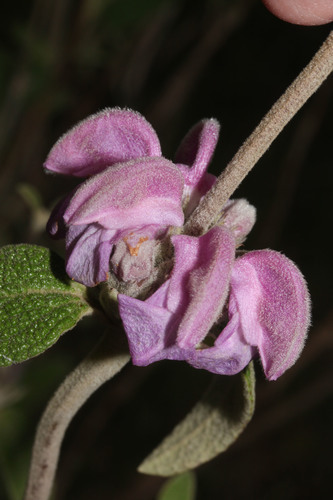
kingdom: Plantae
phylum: Tracheophyta
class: Magnoliopsida
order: Lamiales
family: Lamiaceae
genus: Phlomis
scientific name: Phlomis purpurea
